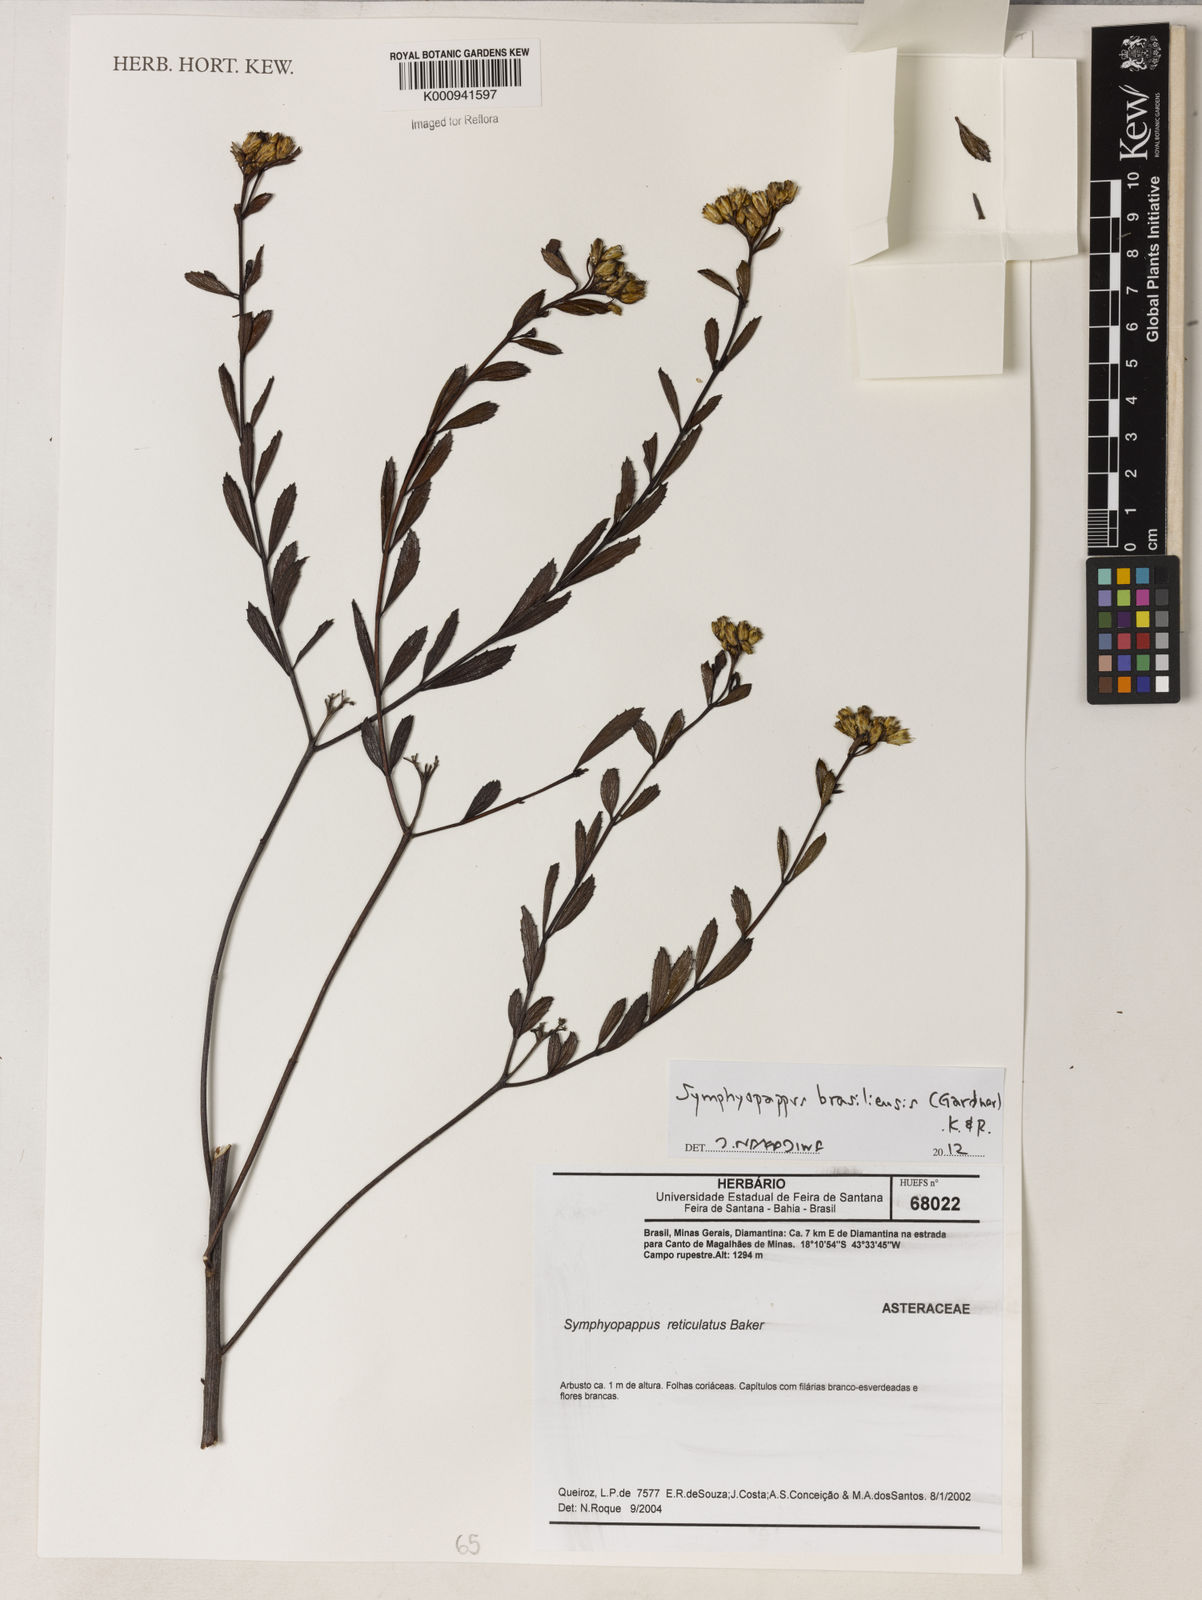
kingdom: Plantae
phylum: Tracheophyta
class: Magnoliopsida
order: Asterales
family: Asteraceae
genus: Symphyopappus
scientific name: Symphyopappus brasiliensis
